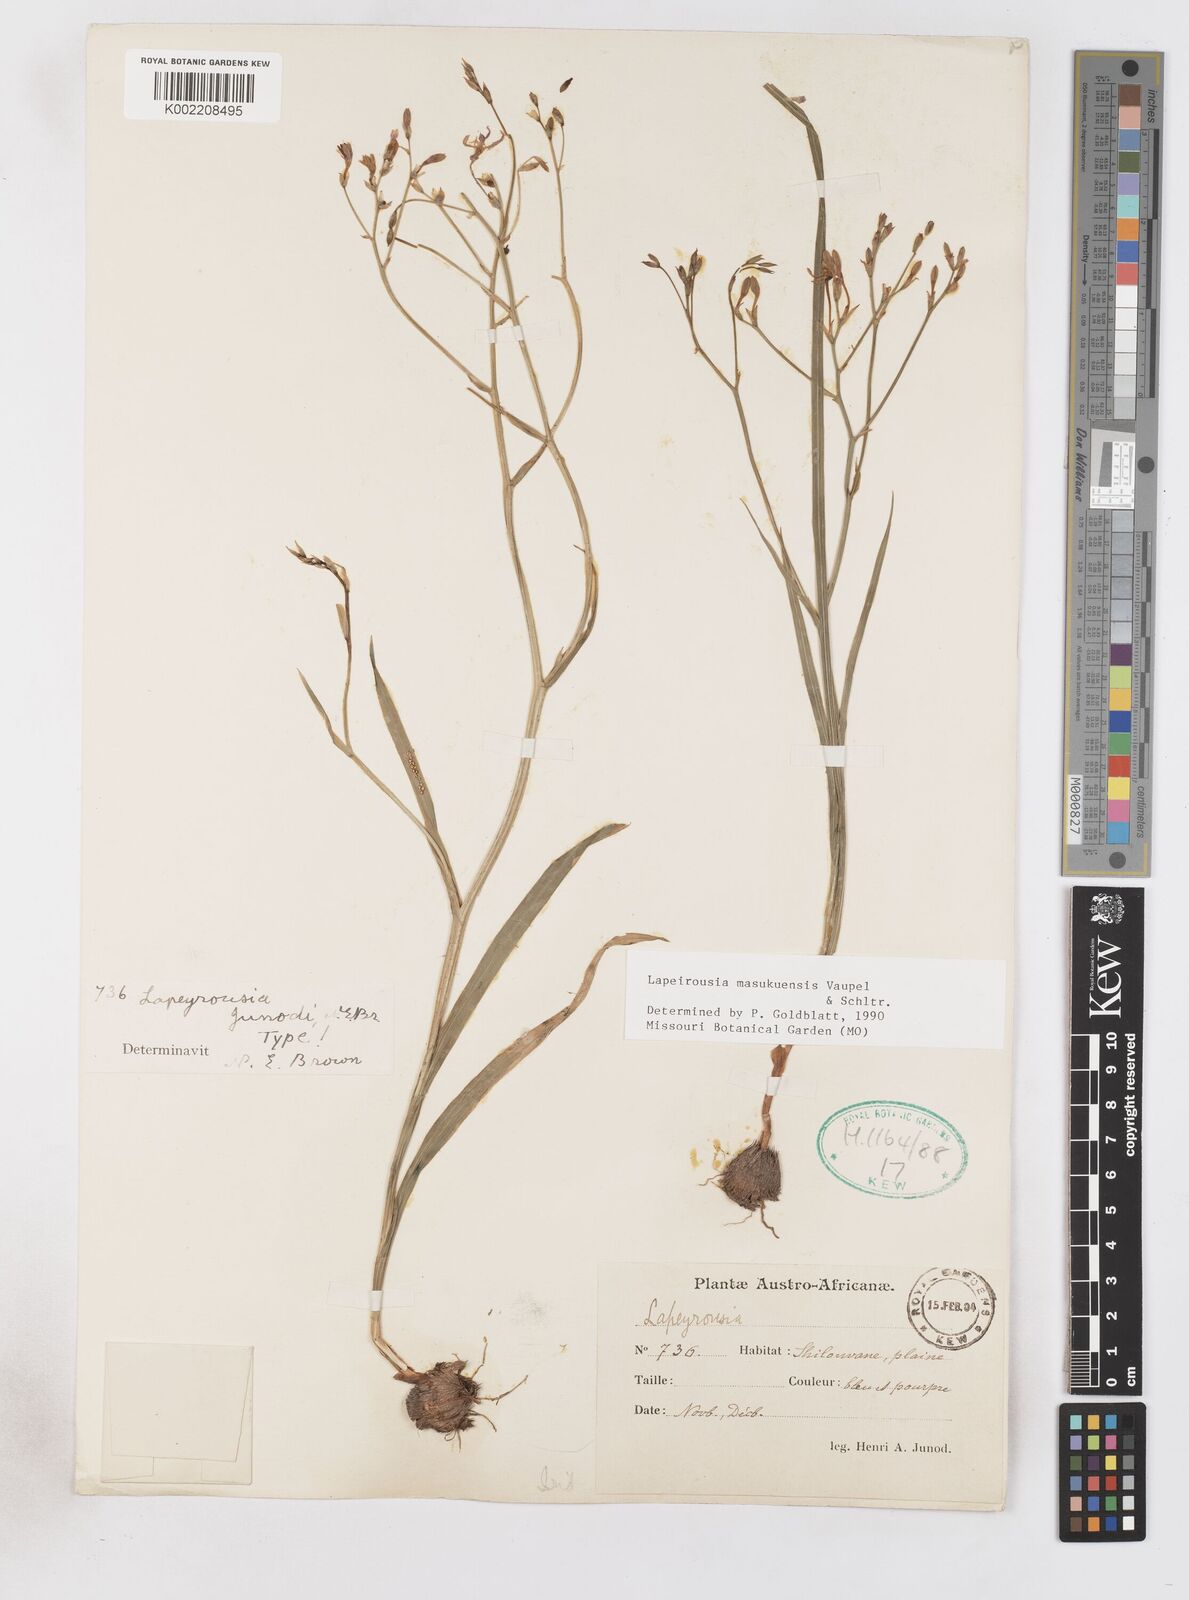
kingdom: Plantae
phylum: Tracheophyta
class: Liliopsida
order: Asparagales
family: Iridaceae
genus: Afrosolen
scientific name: Afrosolen masukuensis
